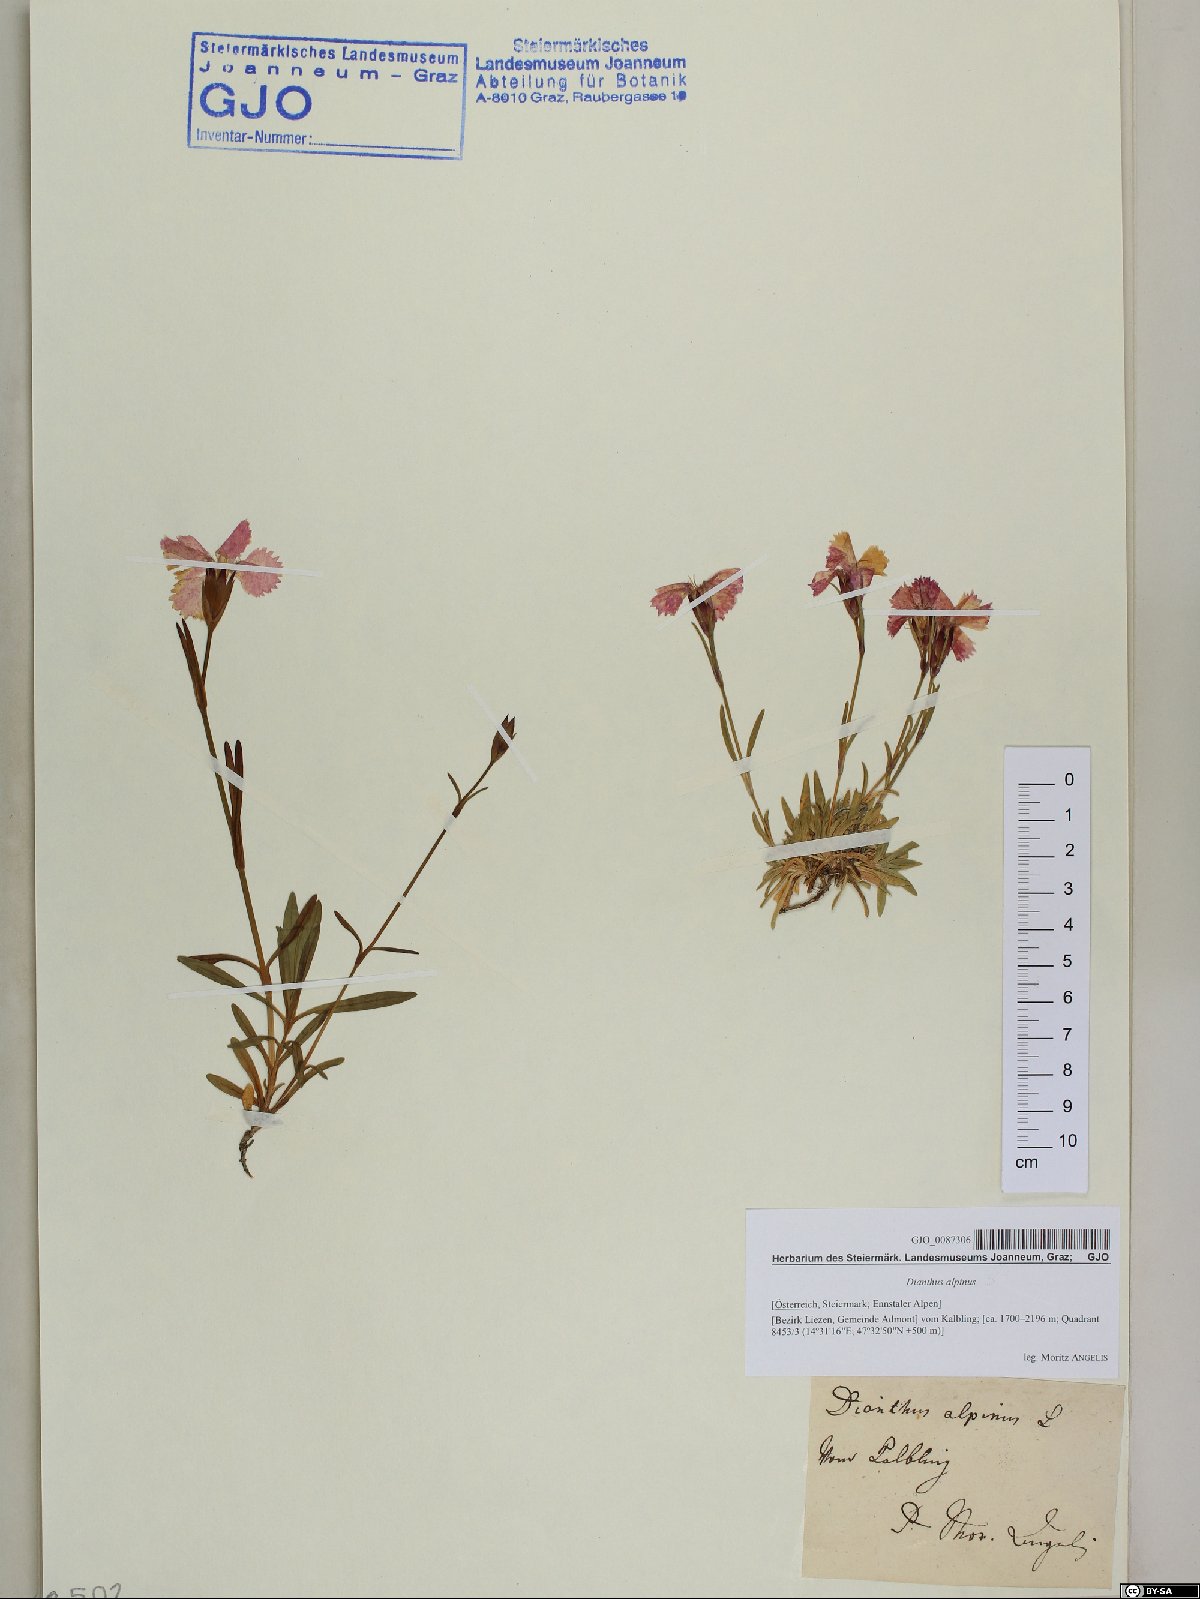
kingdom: Plantae
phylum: Tracheophyta
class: Magnoliopsida
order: Caryophyllales
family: Caryophyllaceae
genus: Dianthus
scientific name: Dianthus alpinus
